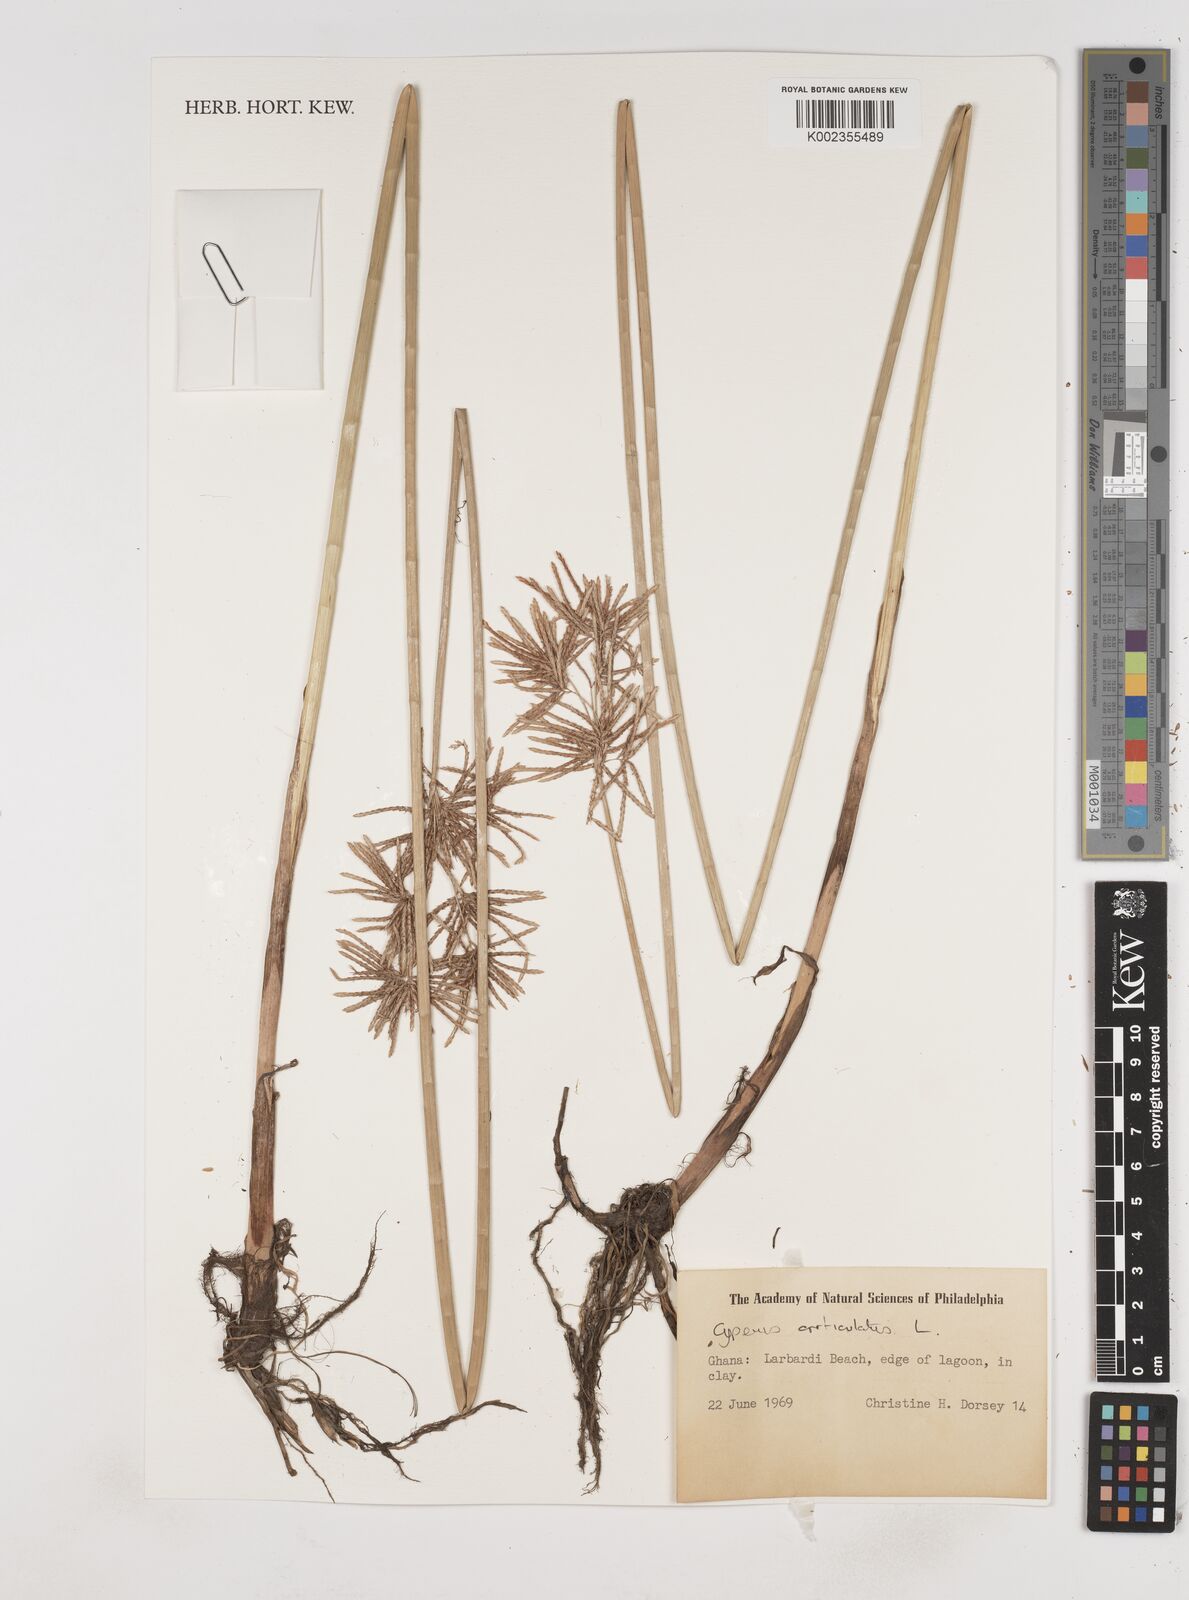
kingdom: Plantae
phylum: Tracheophyta
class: Liliopsida
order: Poales
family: Cyperaceae
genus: Cyperus
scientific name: Cyperus articulatus
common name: Jointed flatsedge
